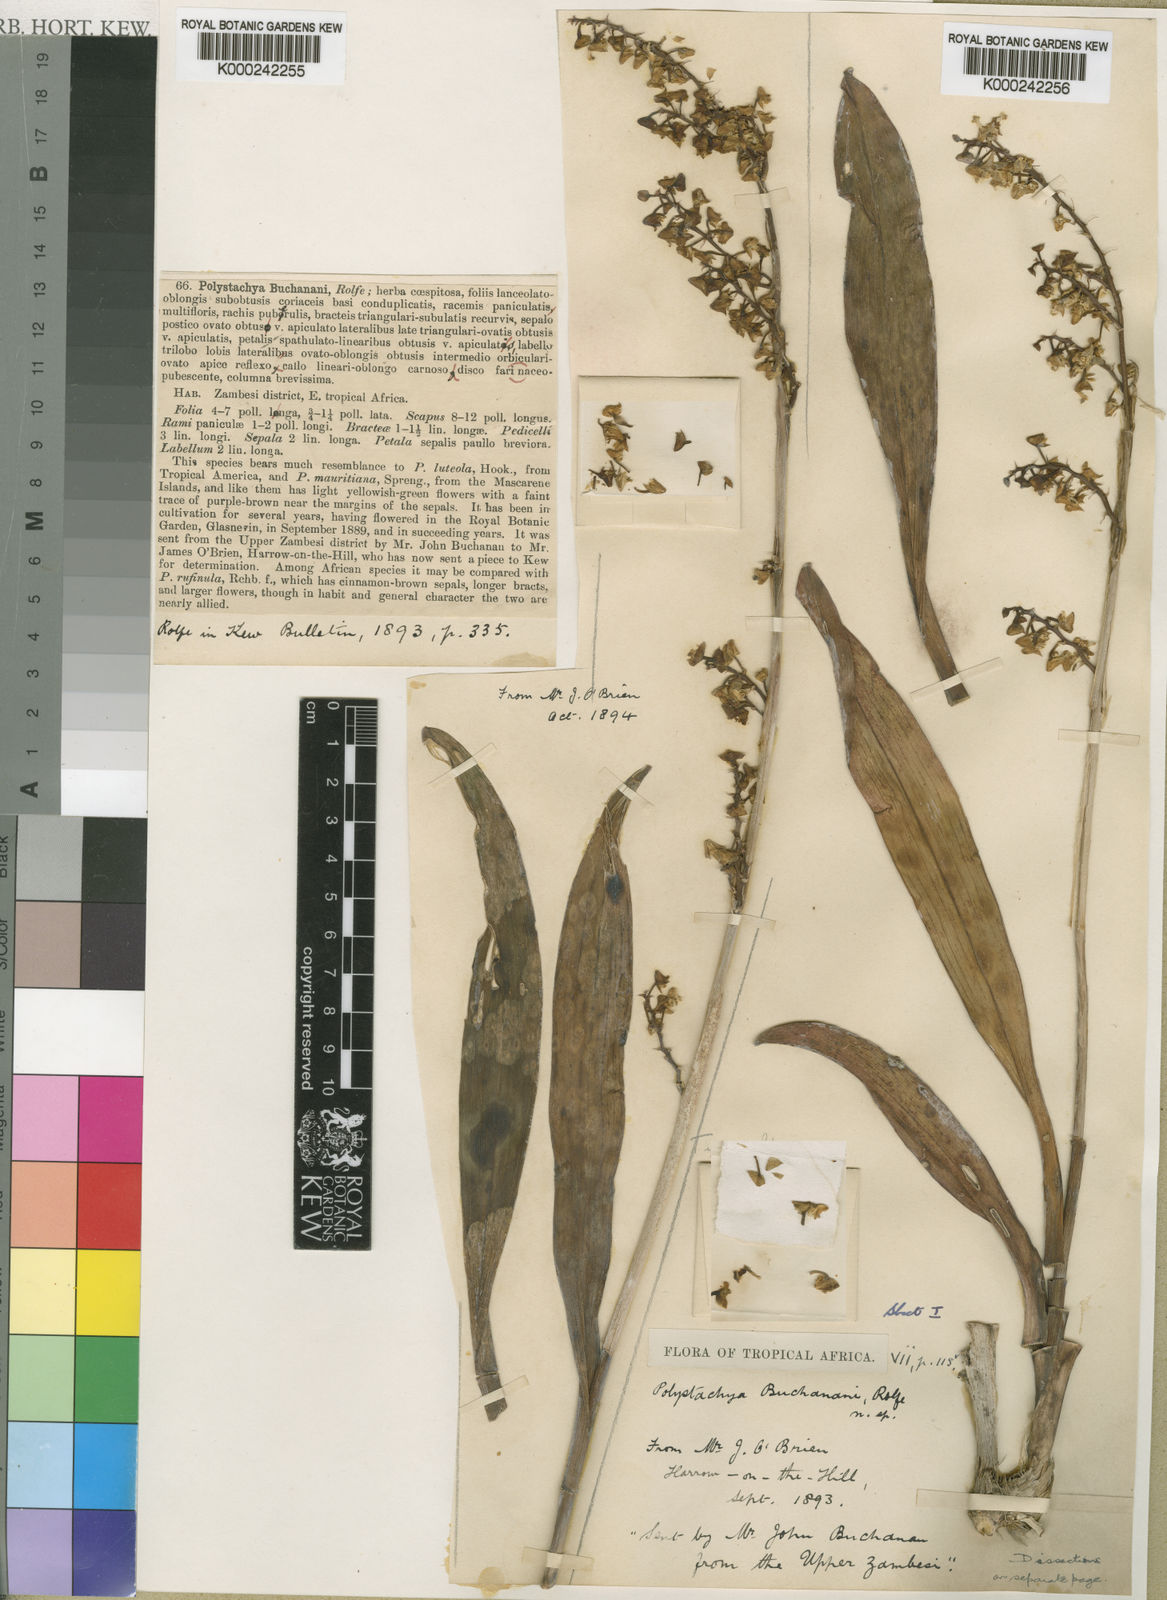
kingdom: Plantae
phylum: Tracheophyta
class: Liliopsida
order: Asparagales
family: Orchidaceae
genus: Polystachya
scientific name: Polystachya concreta
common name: Greater yellowspike orchid
